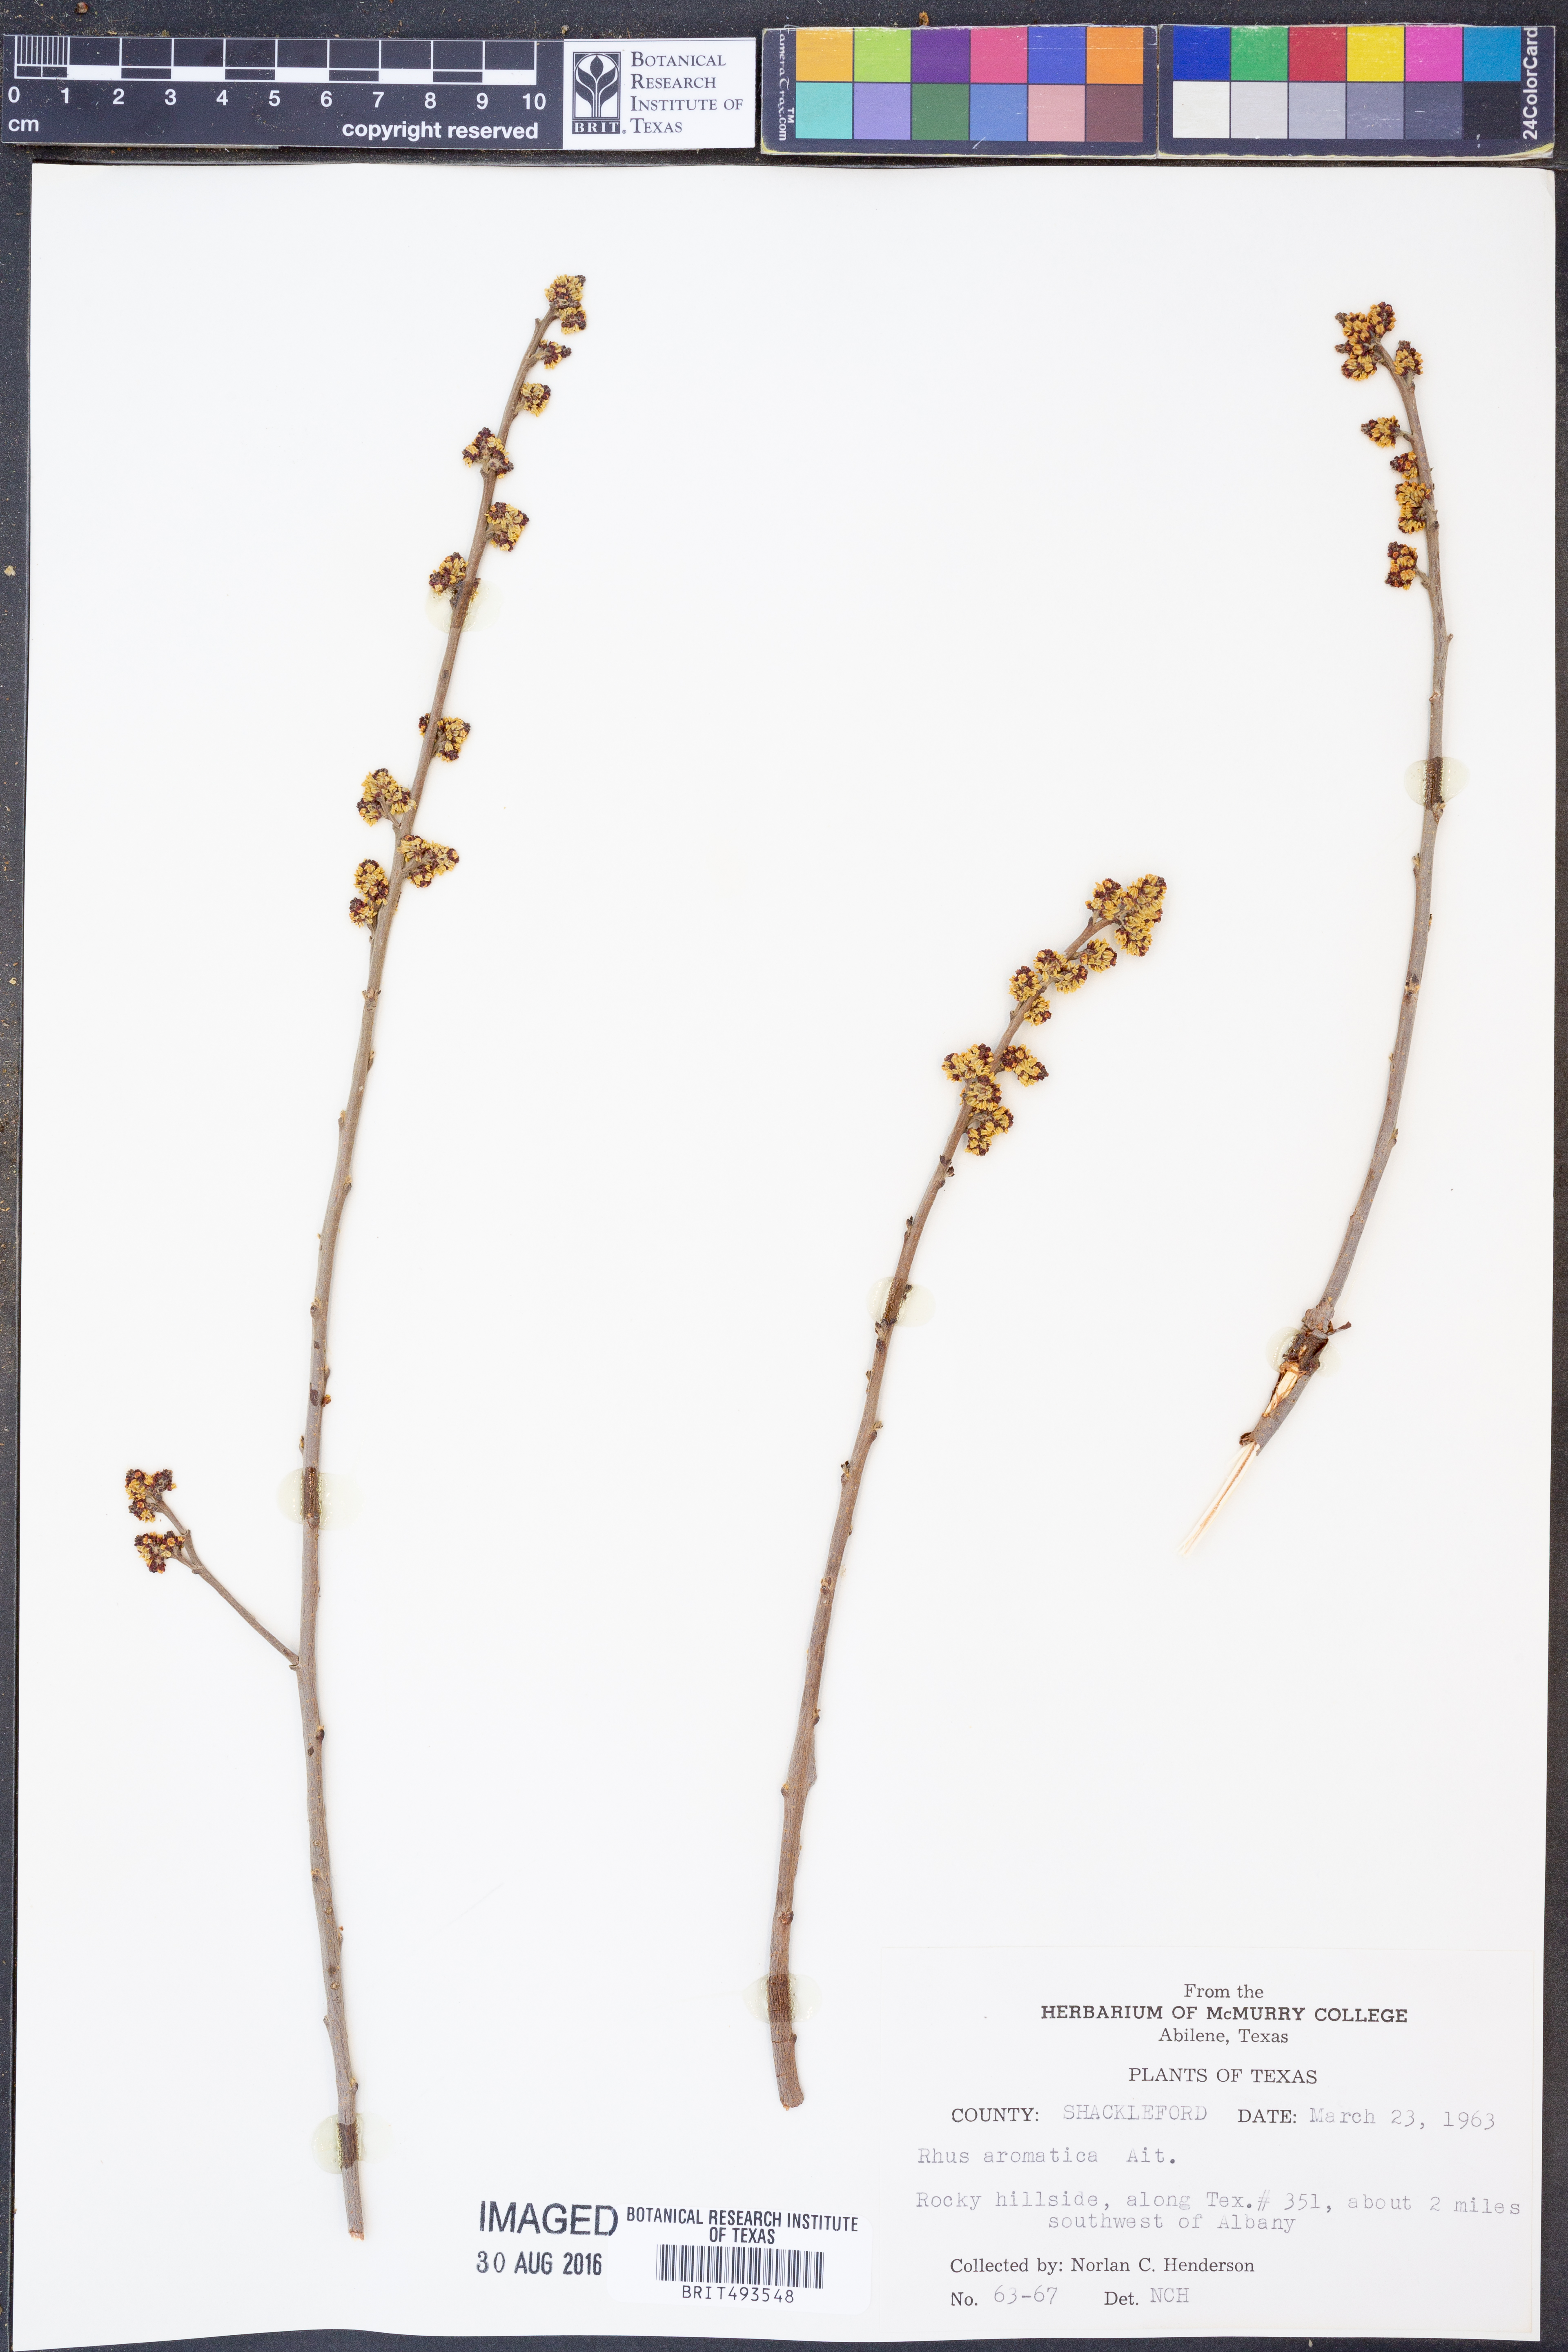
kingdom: Plantae
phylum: Tracheophyta
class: Magnoliopsida
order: Sapindales
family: Anacardiaceae
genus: Rhus
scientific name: Rhus aromatica
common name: Aromatic sumac
